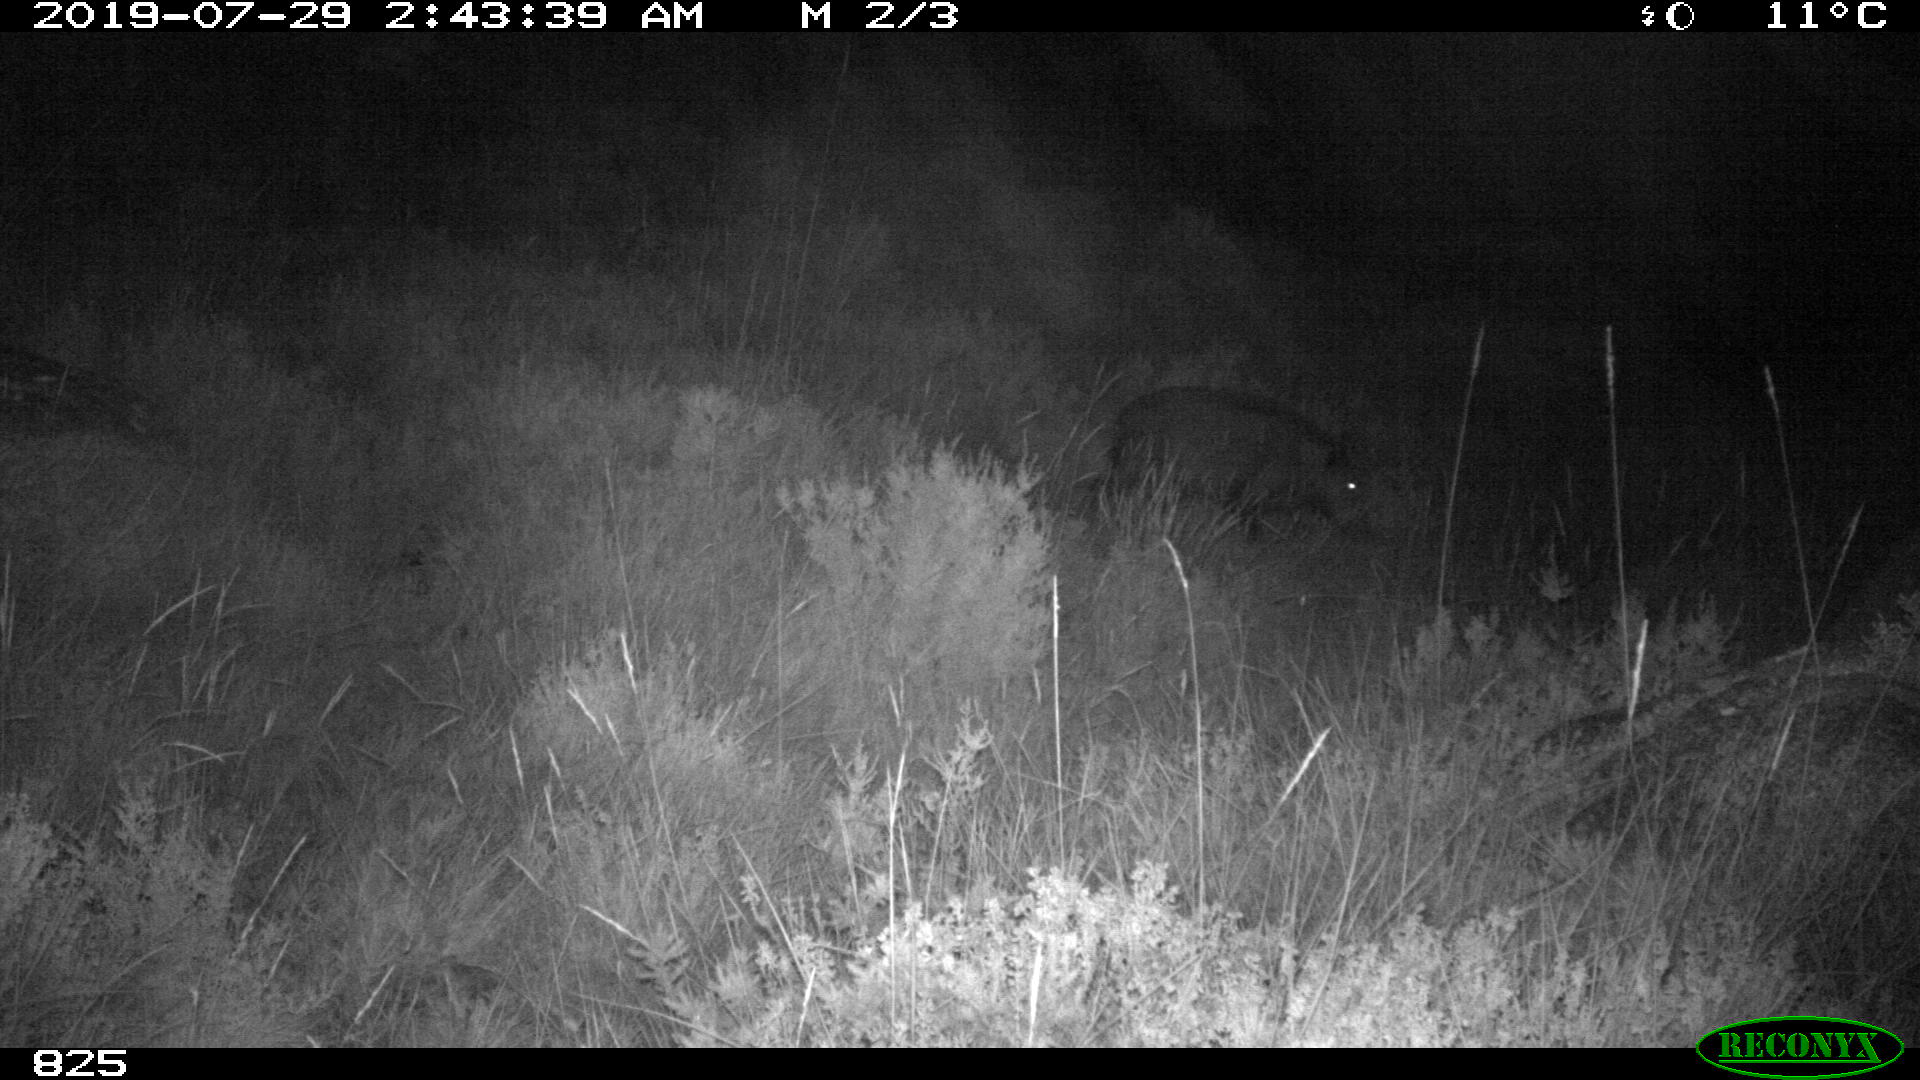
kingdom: Animalia
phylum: Chordata
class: Mammalia
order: Artiodactyla
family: Suidae
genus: Sus
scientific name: Sus scrofa
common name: Wild boar
